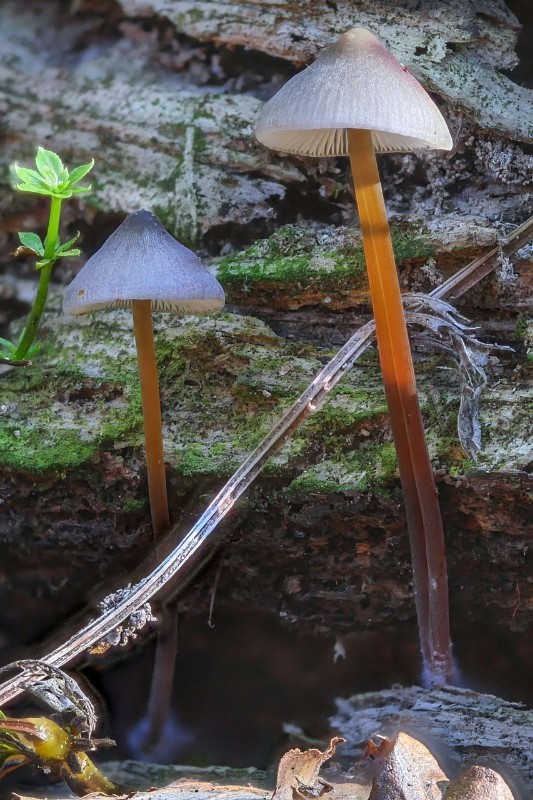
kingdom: Fungi
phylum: Basidiomycota
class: Agaricomycetes
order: Agaricales
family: Mycenaceae
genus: Mycena
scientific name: Mycena crocata
